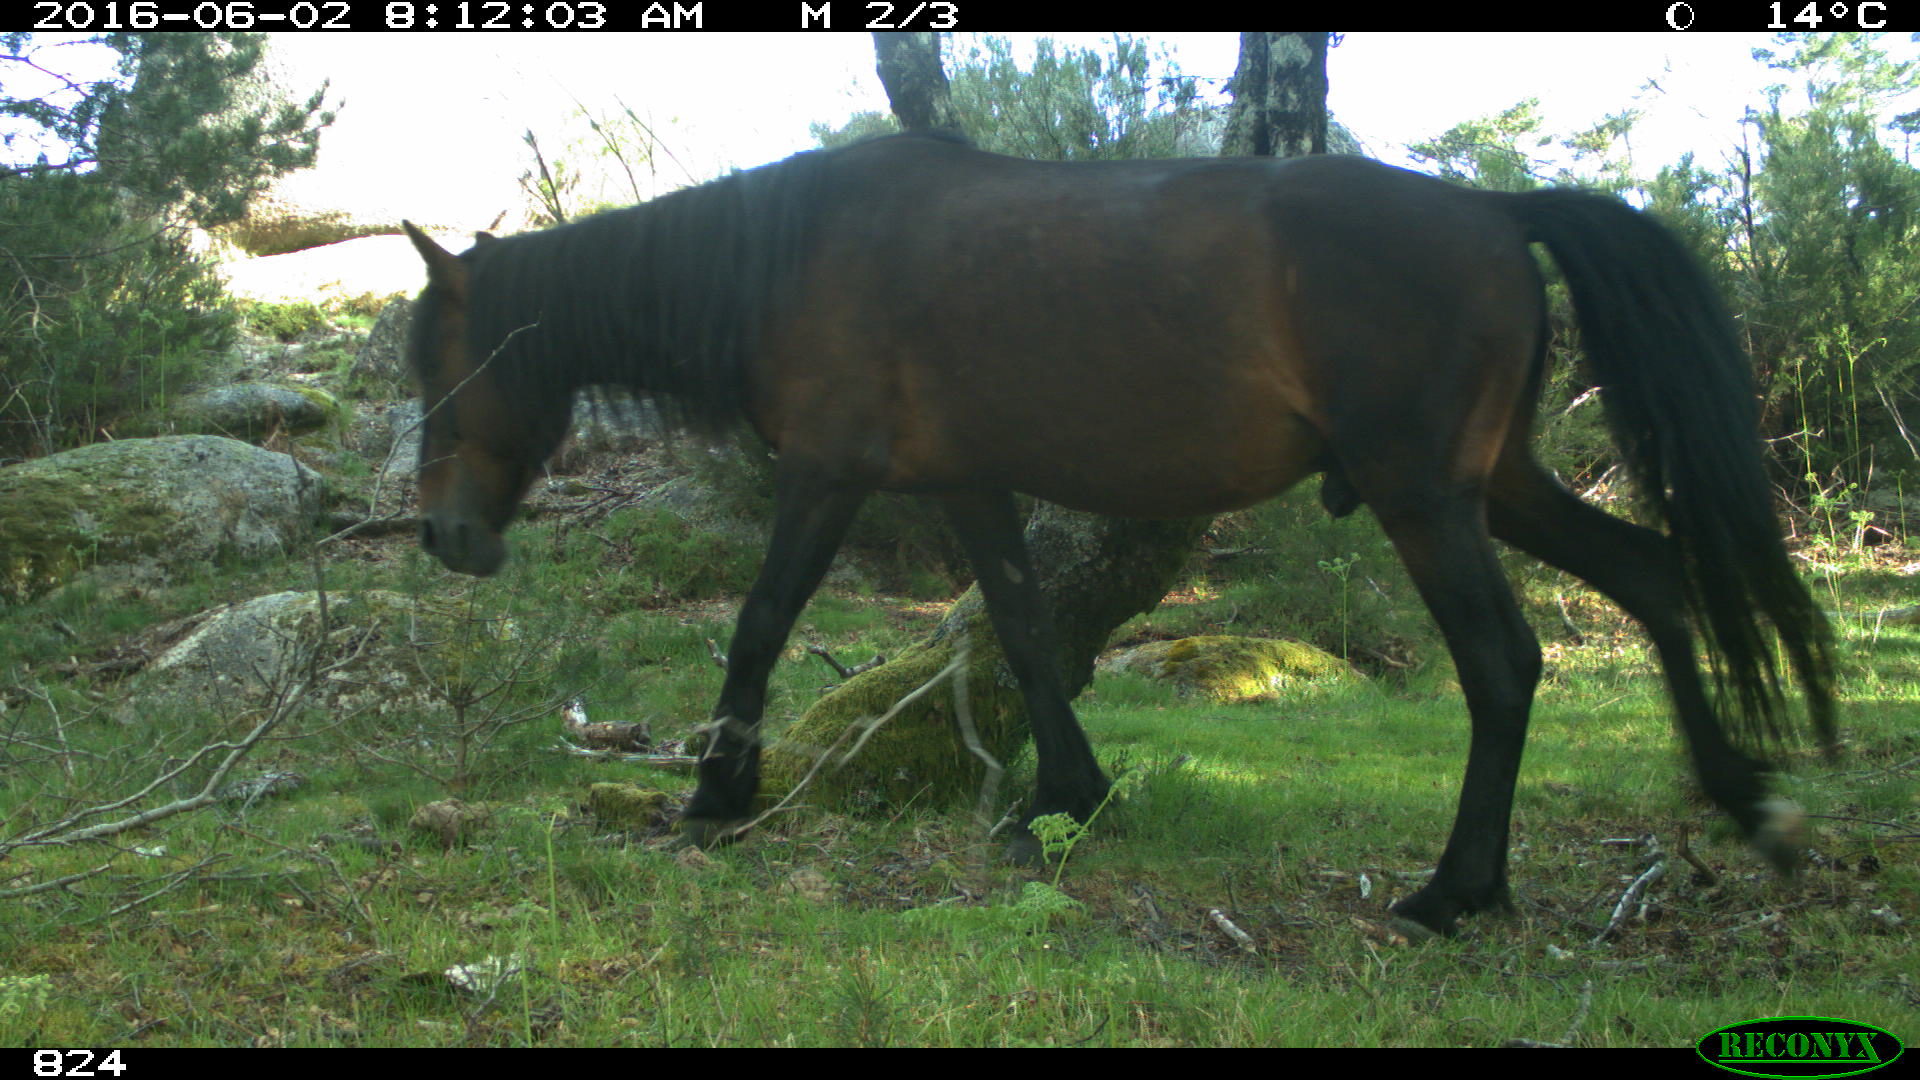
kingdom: Animalia
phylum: Chordata
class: Mammalia
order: Perissodactyla
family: Equidae
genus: Equus
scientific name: Equus caballus
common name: Horse
